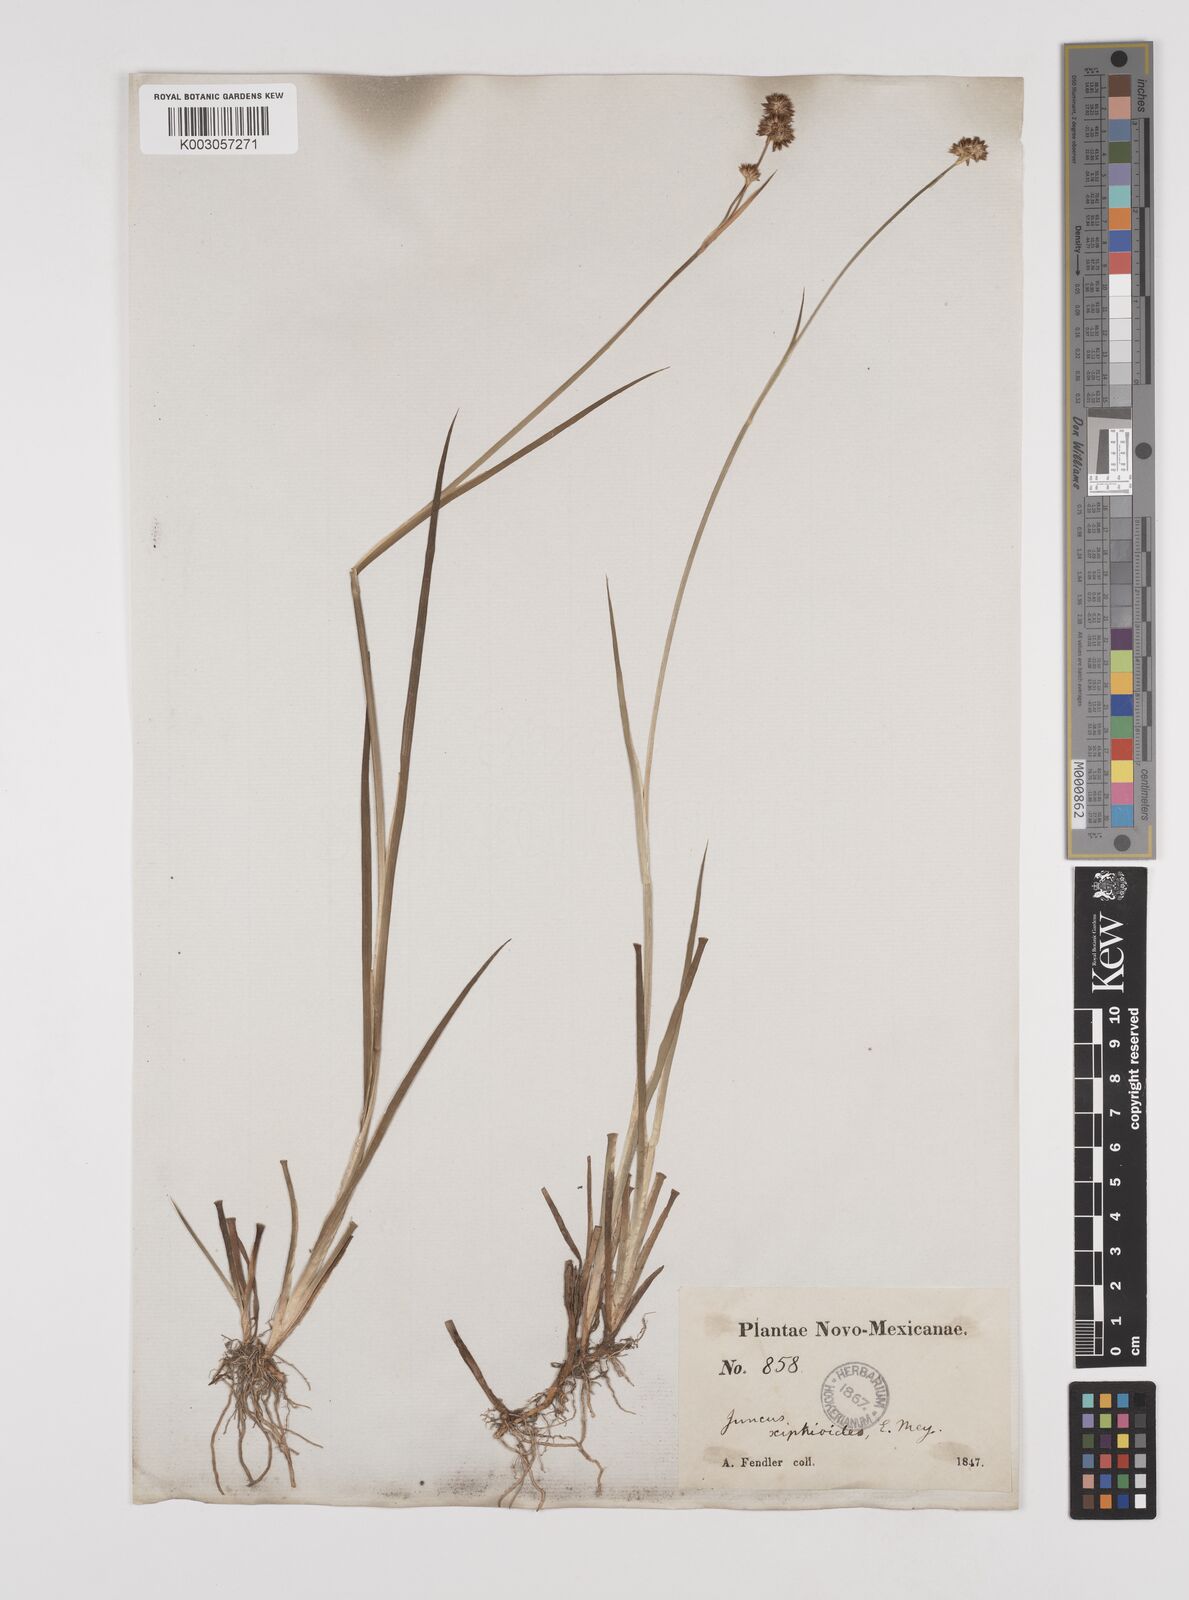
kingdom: Plantae
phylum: Tracheophyta
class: Liliopsida
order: Poales
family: Juncaceae
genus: Juncus
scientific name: Juncus xiphioides
